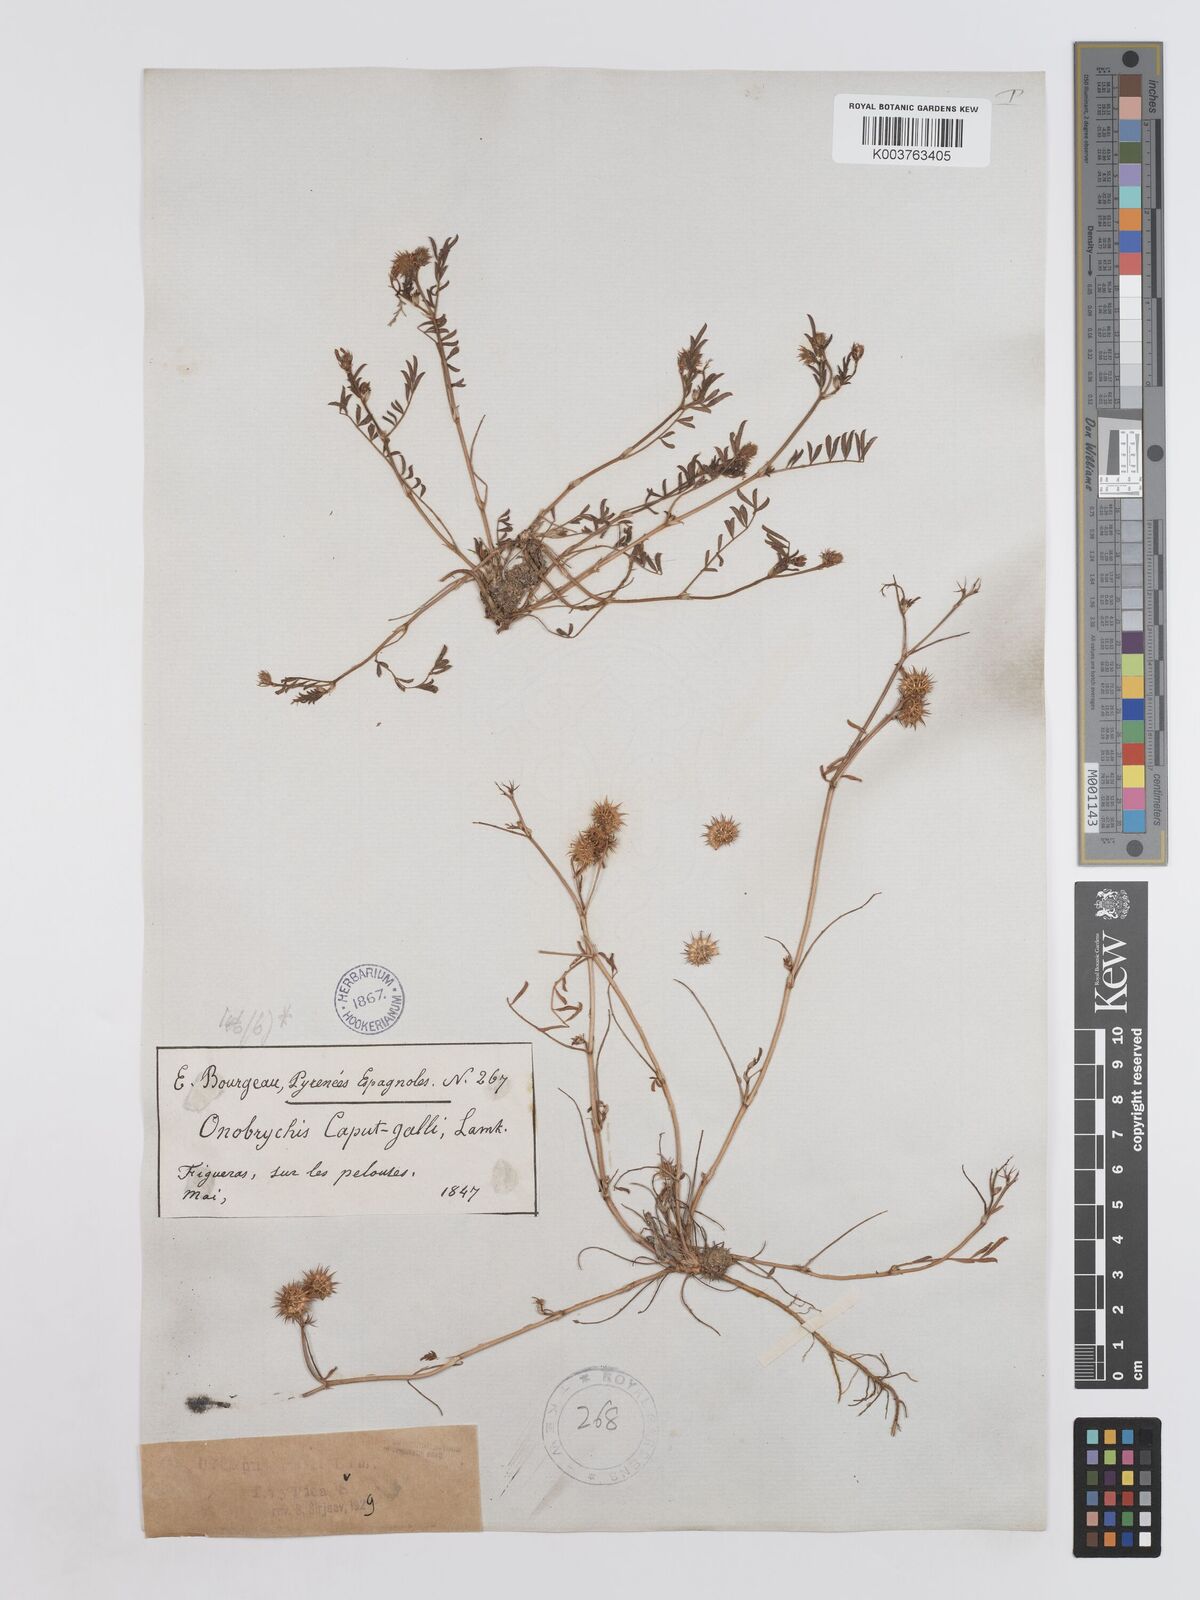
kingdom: Plantae
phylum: Tracheophyta
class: Magnoliopsida
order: Fabales
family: Fabaceae
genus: Onobrychis
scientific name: Onobrychis caput-galli
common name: Cockscomb sainfoin
